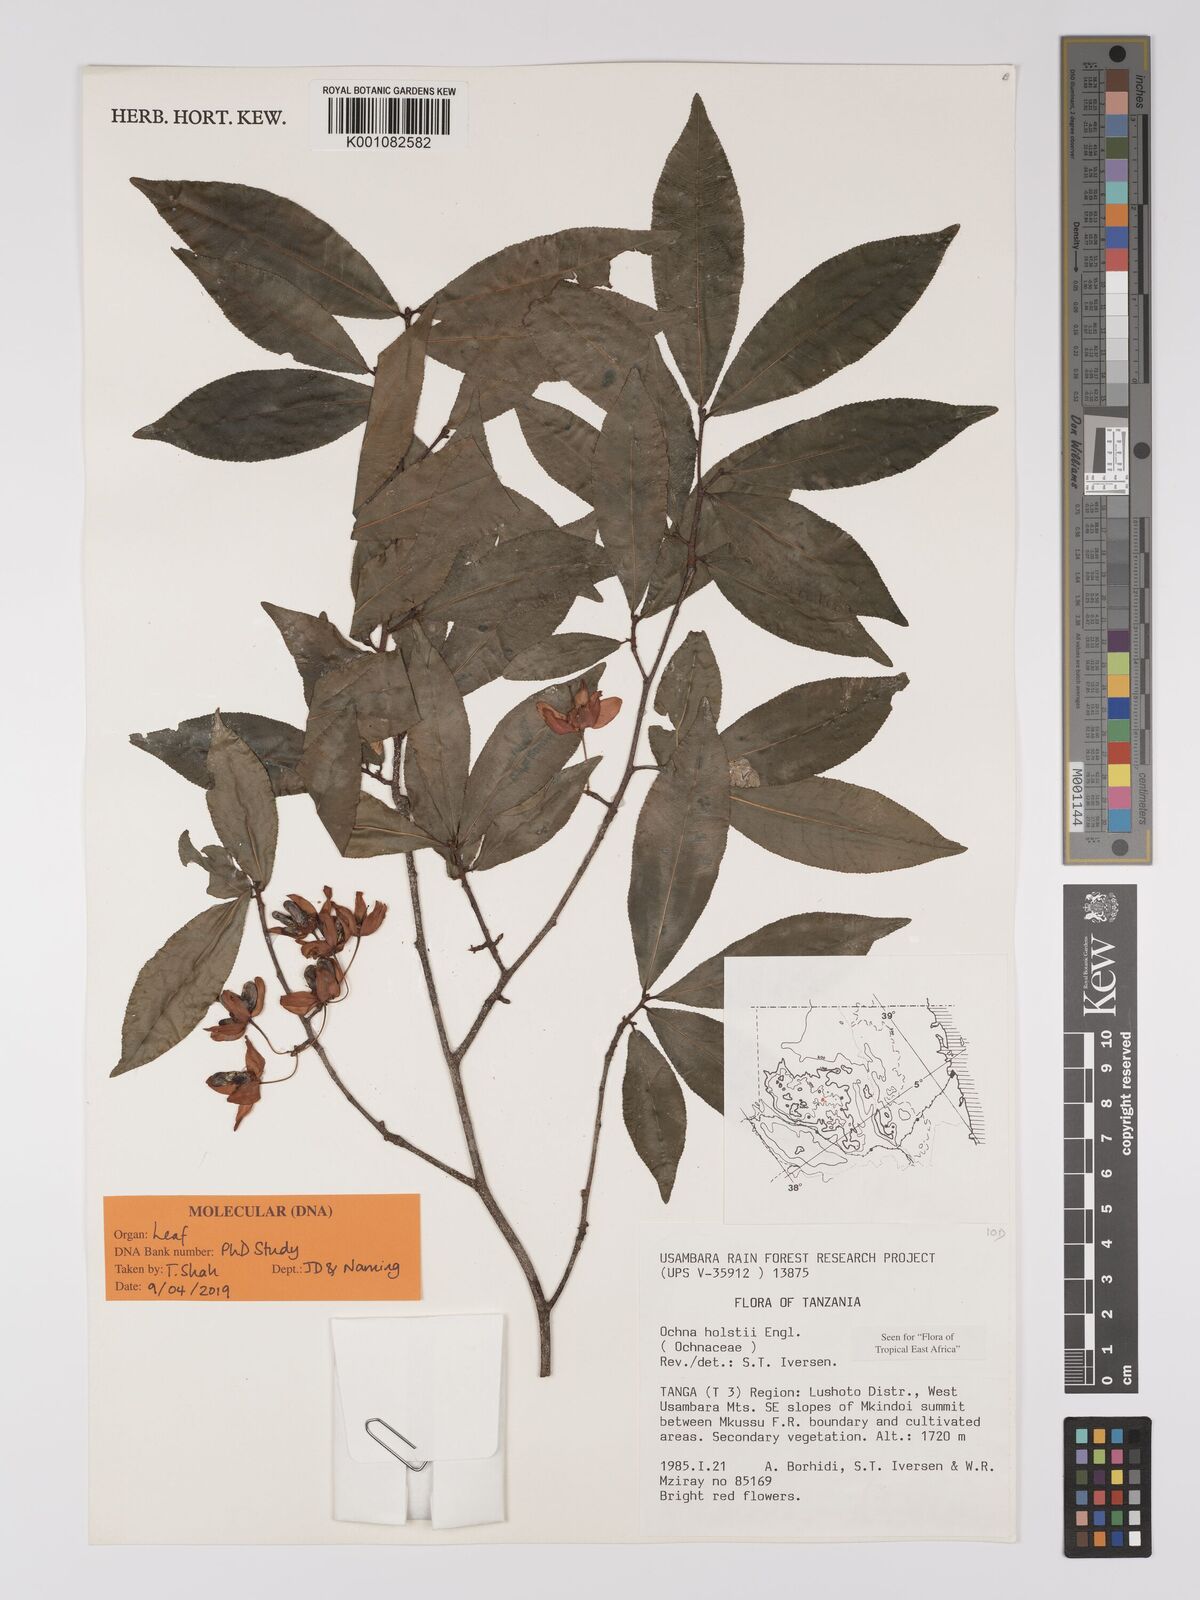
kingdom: Plantae
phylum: Tracheophyta
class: Magnoliopsida
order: Malpighiales
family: Ochnaceae
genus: Ochna
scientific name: Ochna holstii
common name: Red ironwood
